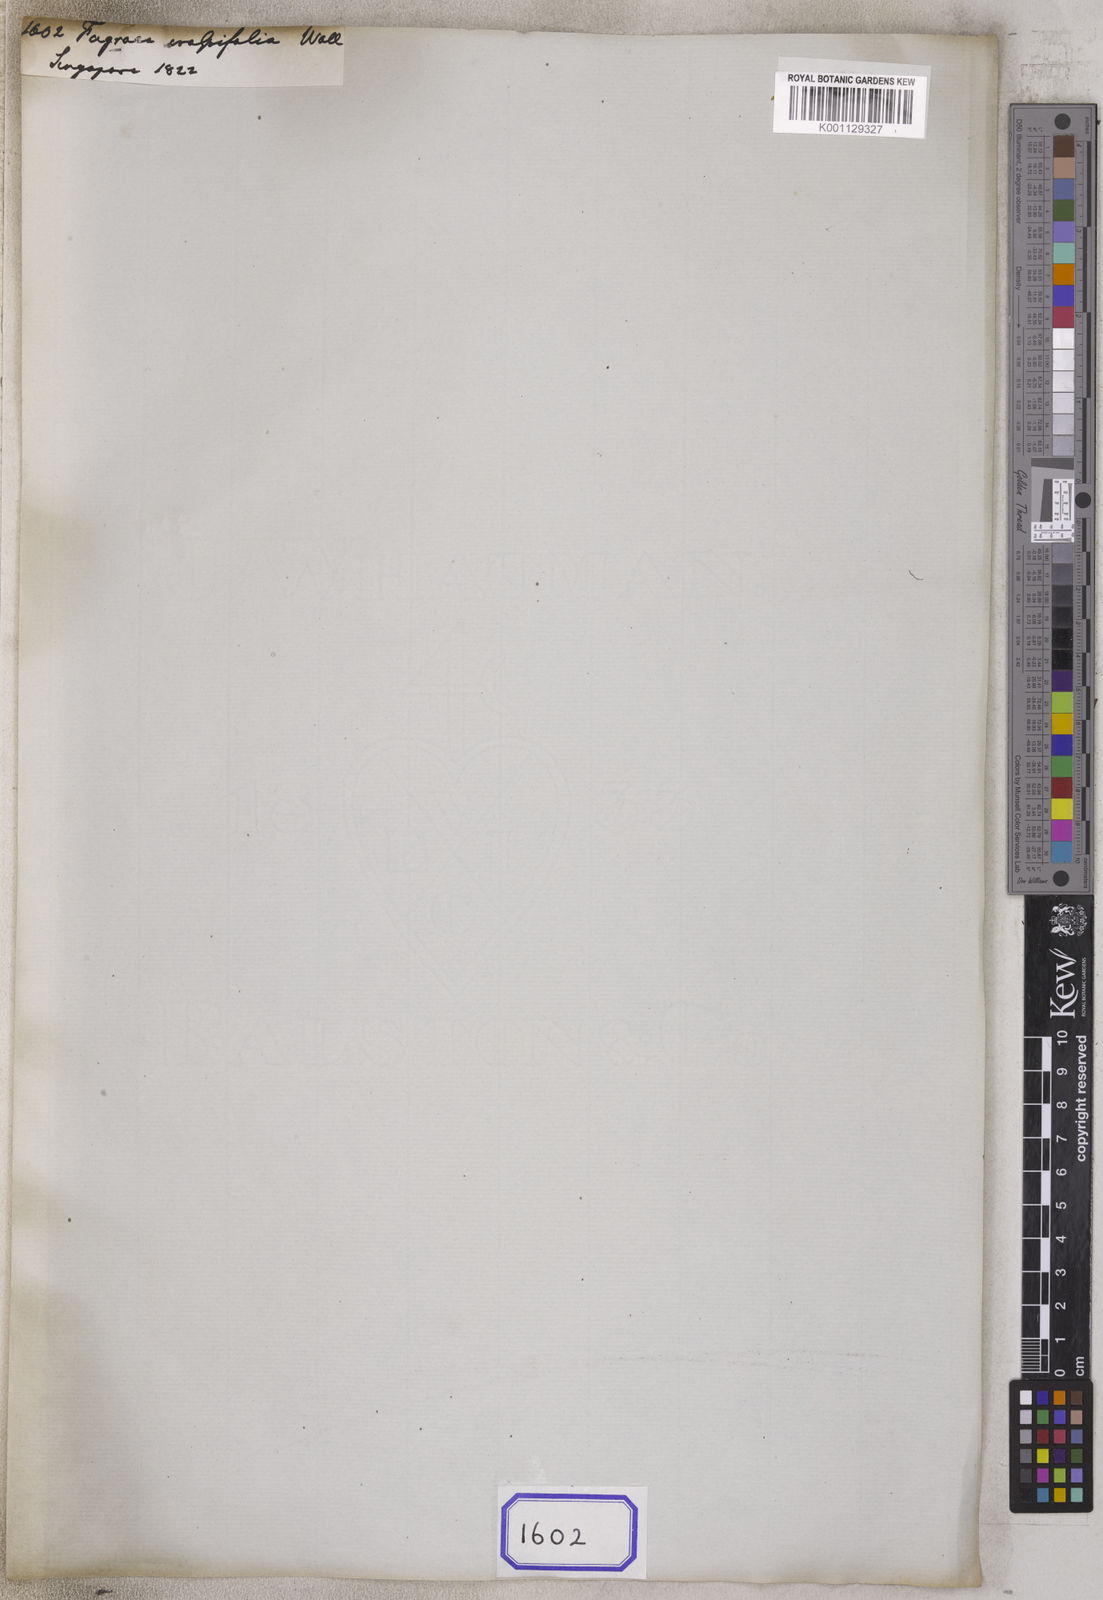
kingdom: Plantae
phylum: Tracheophyta
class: Magnoliopsida
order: Gentianales
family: Gentianaceae
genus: Fagraea
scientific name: Fagraea
